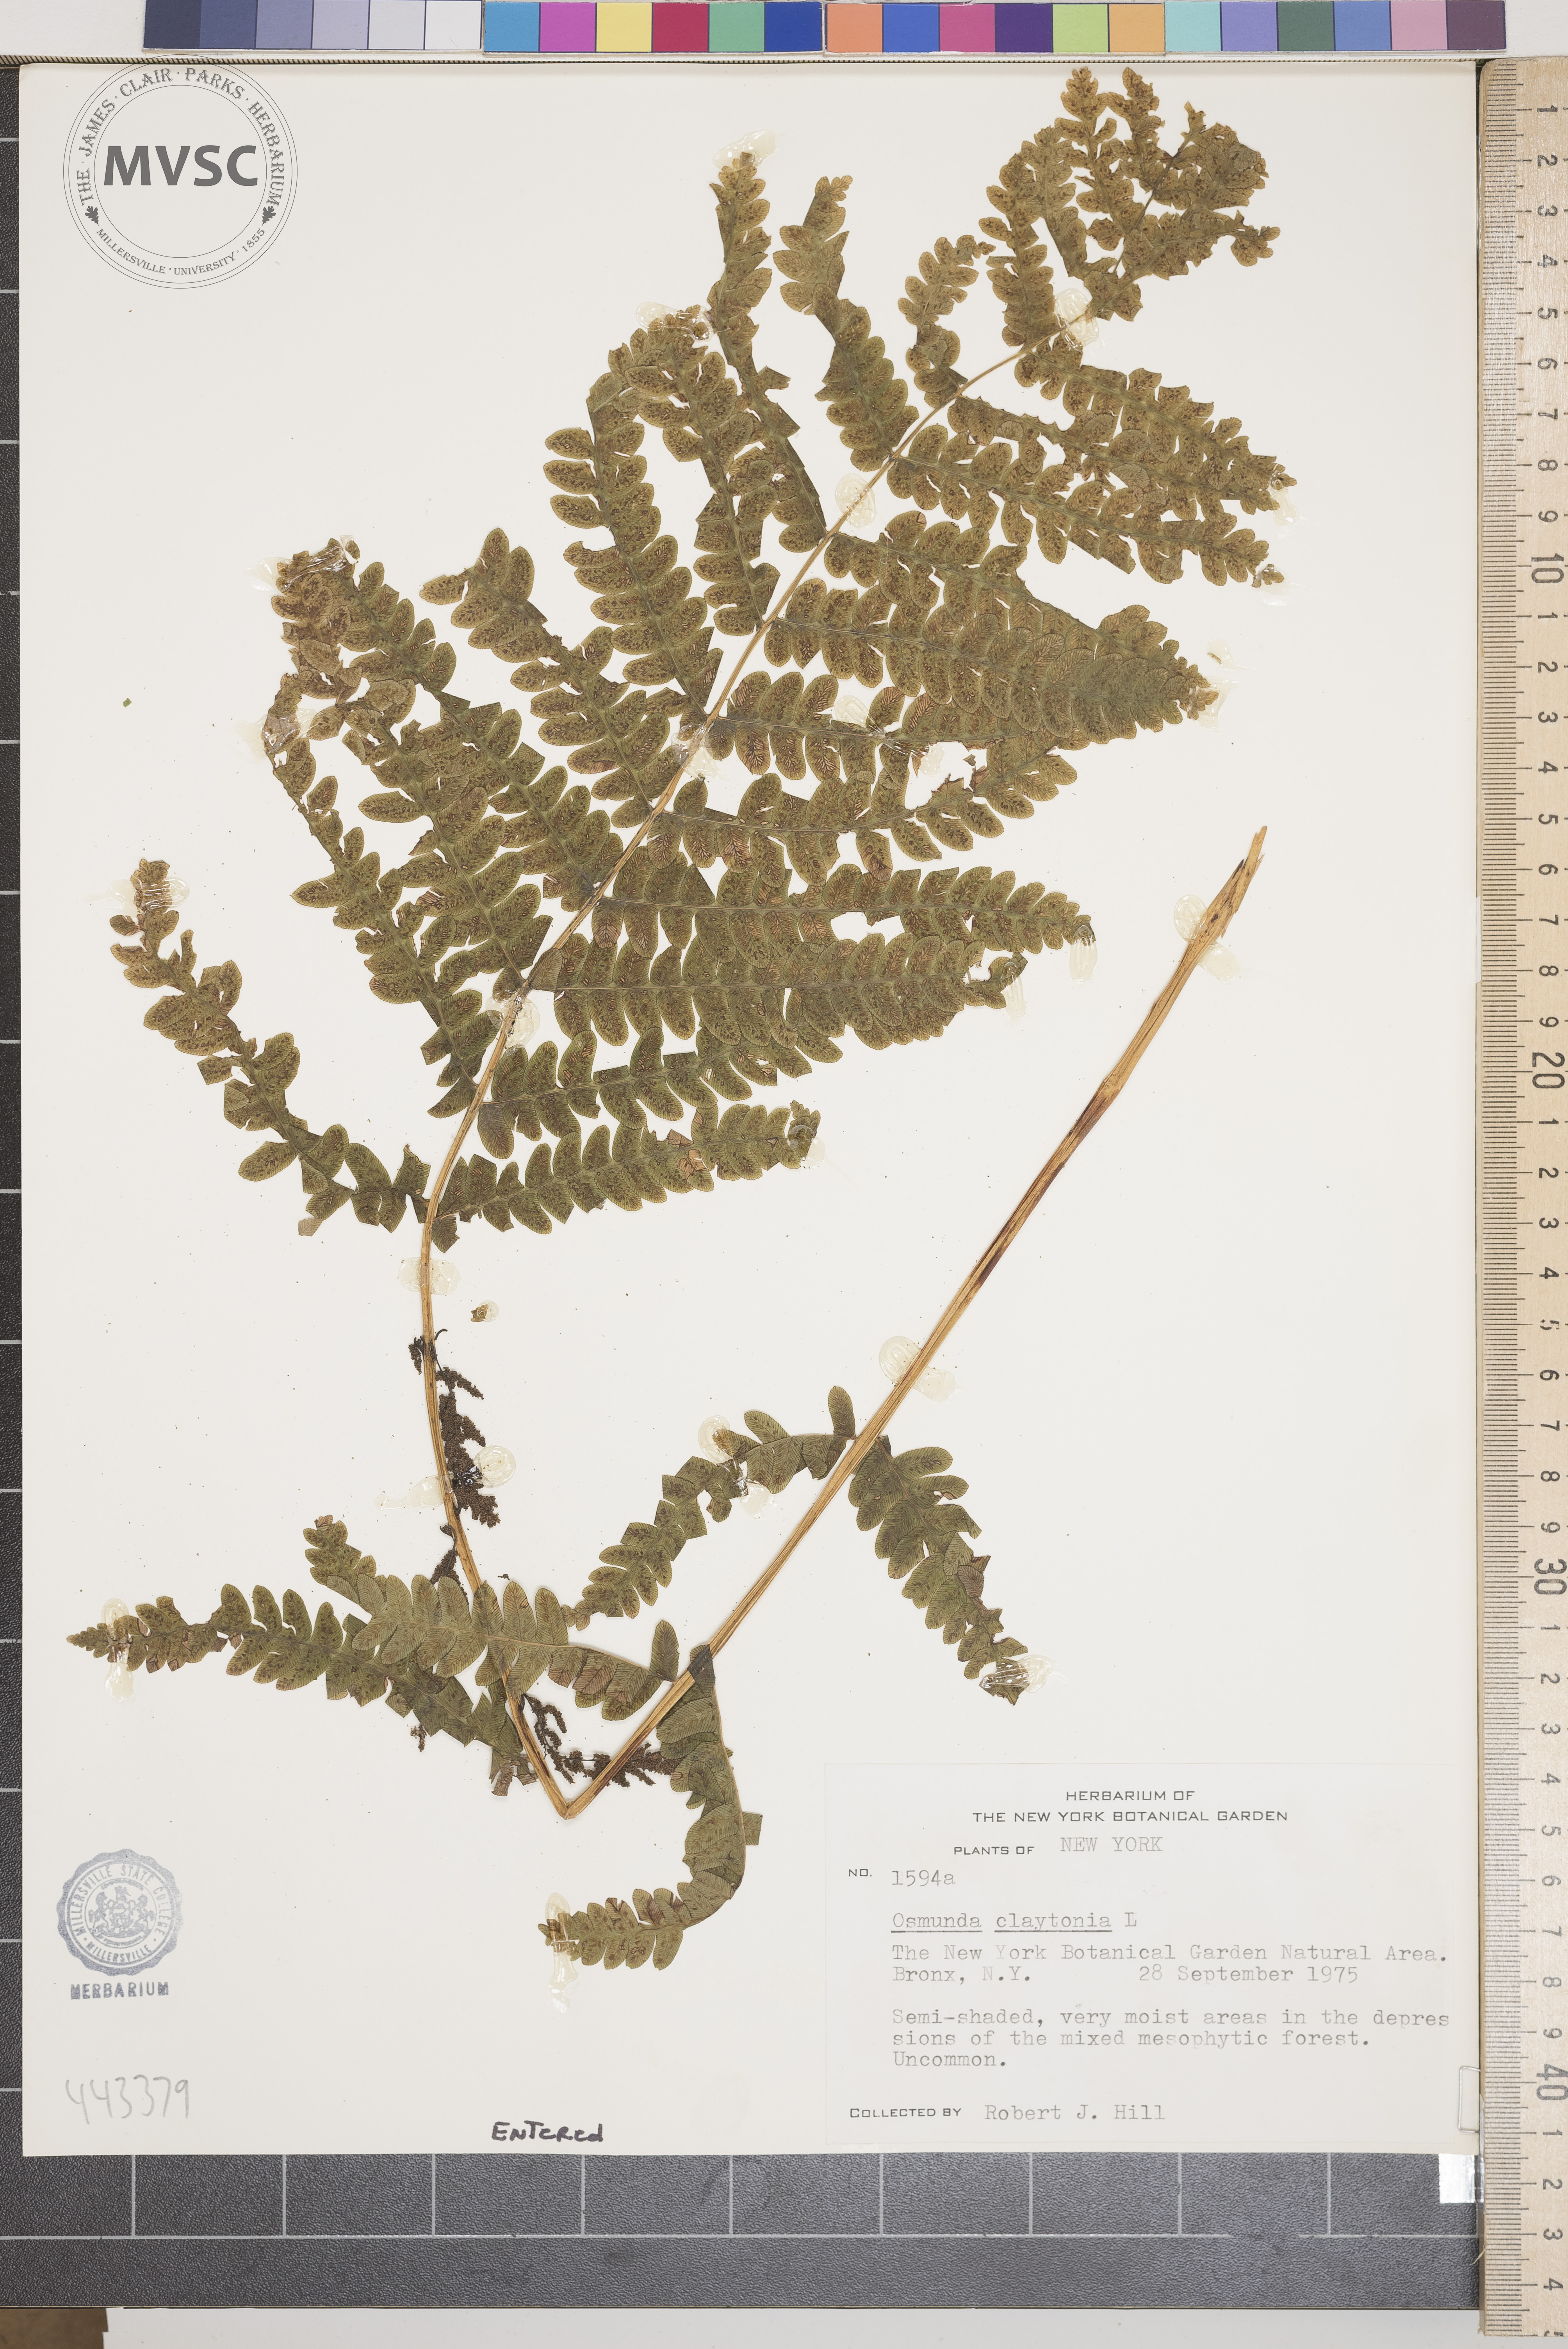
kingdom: Plantae
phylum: Tracheophyta
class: Polypodiopsida
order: Osmundales
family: Osmundaceae
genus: Claytosmunda
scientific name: Claytosmunda claytoniana
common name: Clayton's fern
